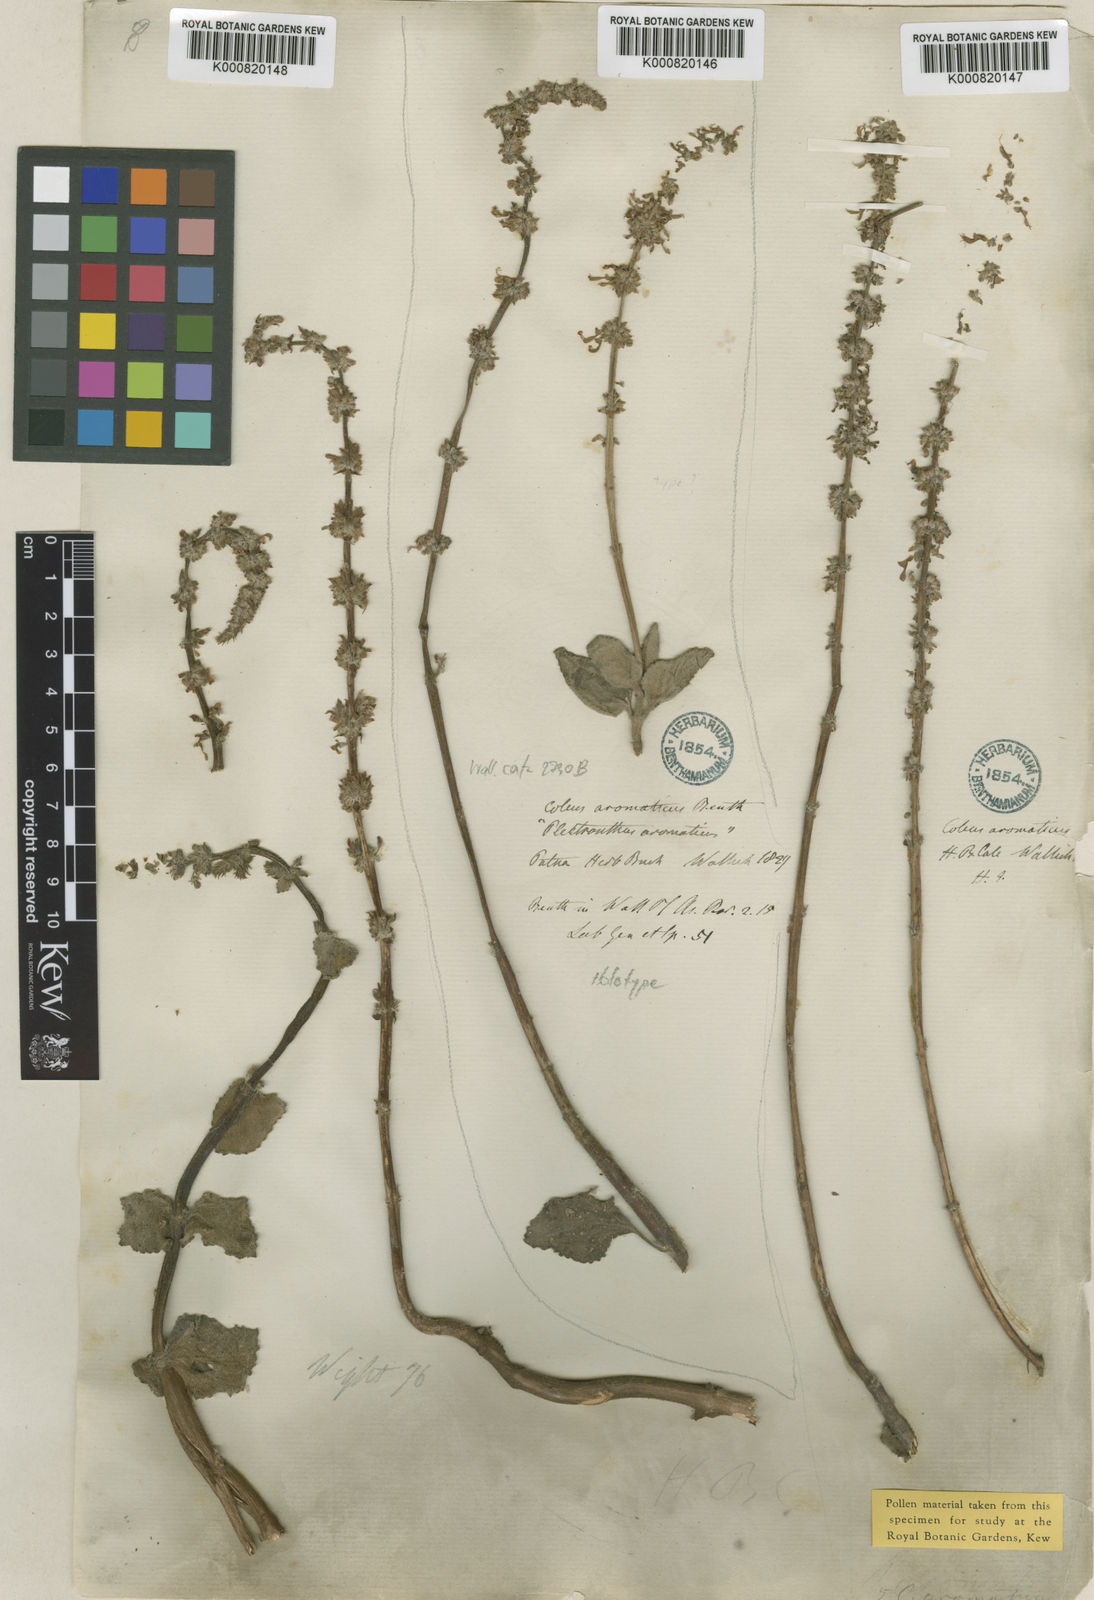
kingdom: Plantae
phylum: Tracheophyta
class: Magnoliopsida
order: Lamiales
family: Lamiaceae
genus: Coleus
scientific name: Coleus scutellarioides
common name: Coleus
